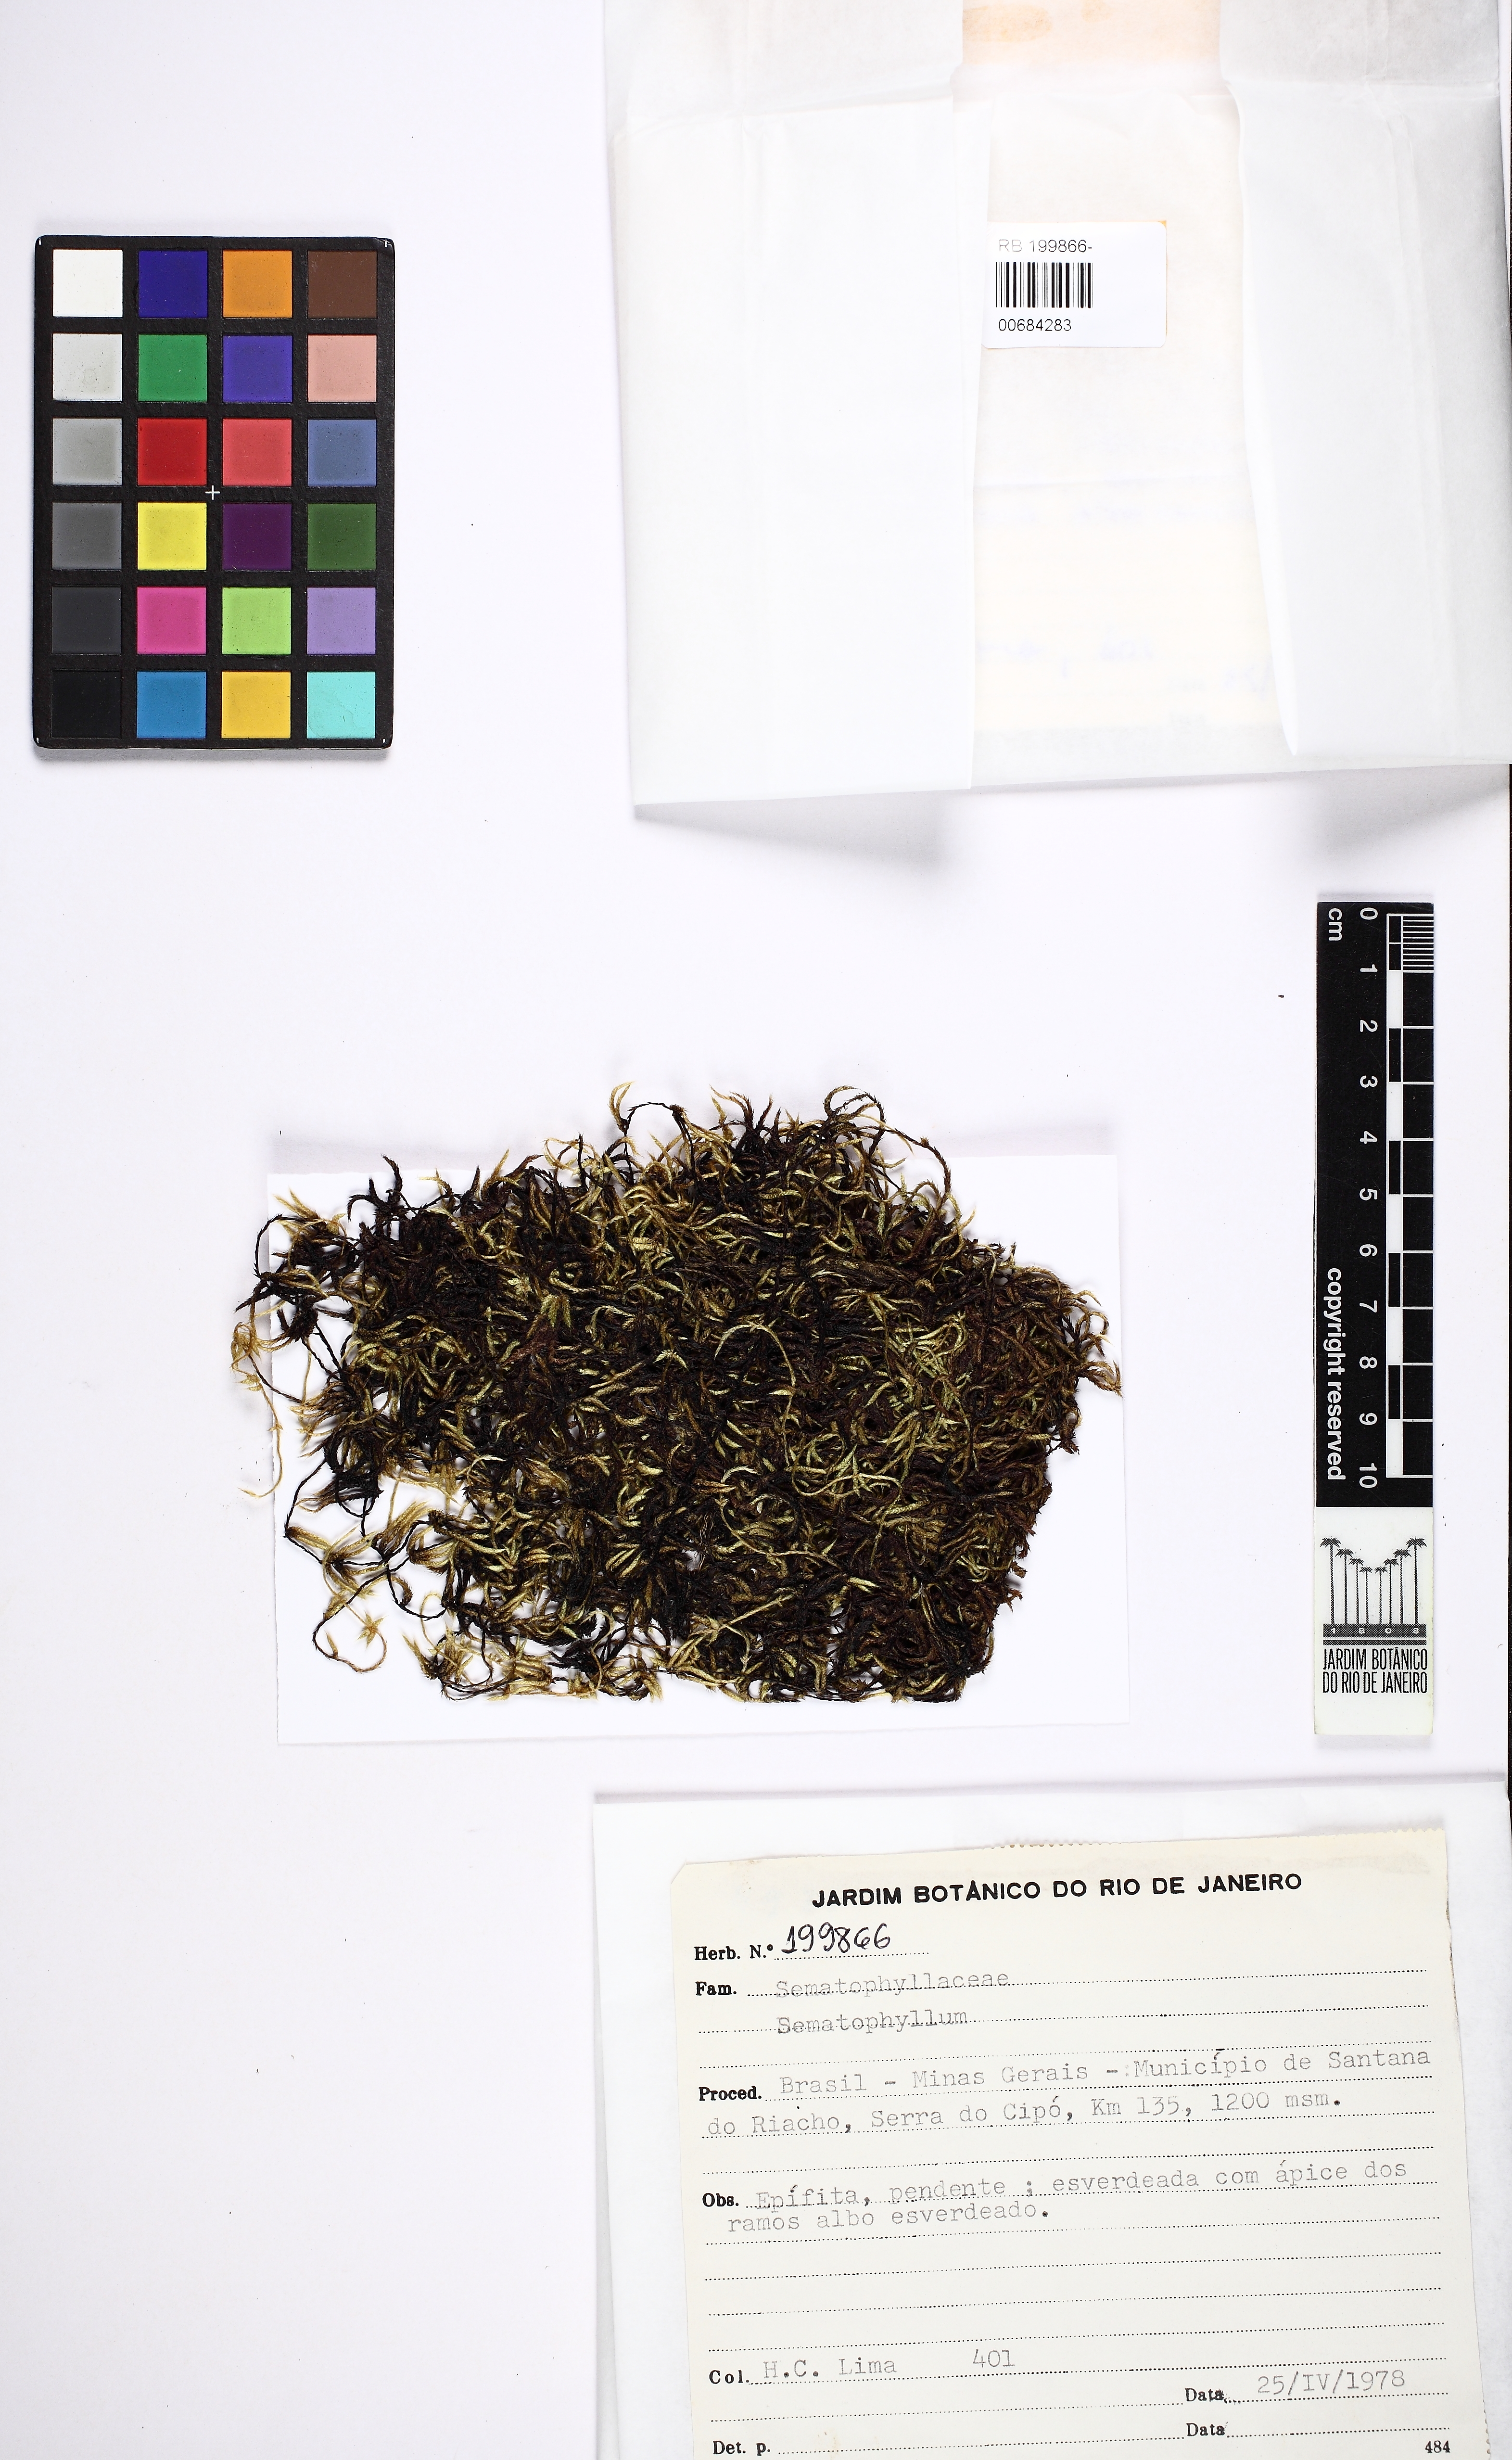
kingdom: Plantae
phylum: Bryophyta
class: Bryopsida
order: Hypnales
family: Sematophyllaceae
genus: Sematophyllum
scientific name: Sematophyllum
